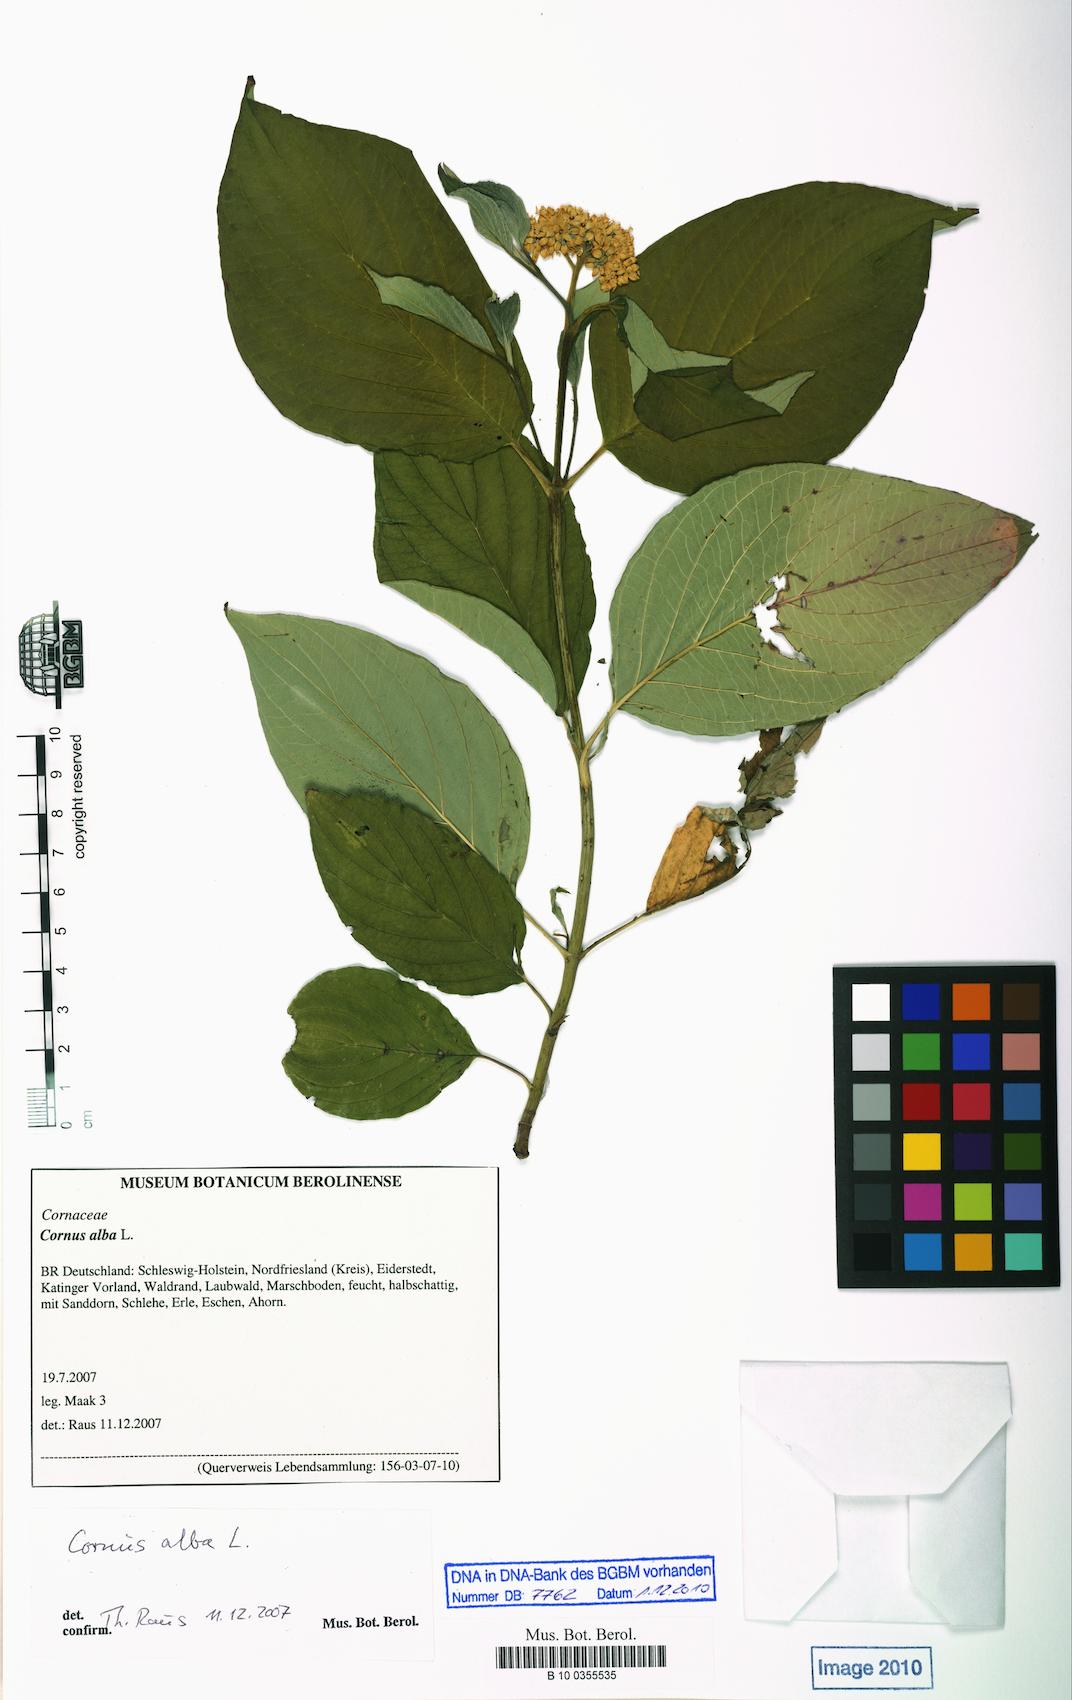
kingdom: Plantae
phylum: Tracheophyta
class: Magnoliopsida
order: Cornales
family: Cornaceae
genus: Cornus
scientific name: Cornus alba
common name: White dogwood
